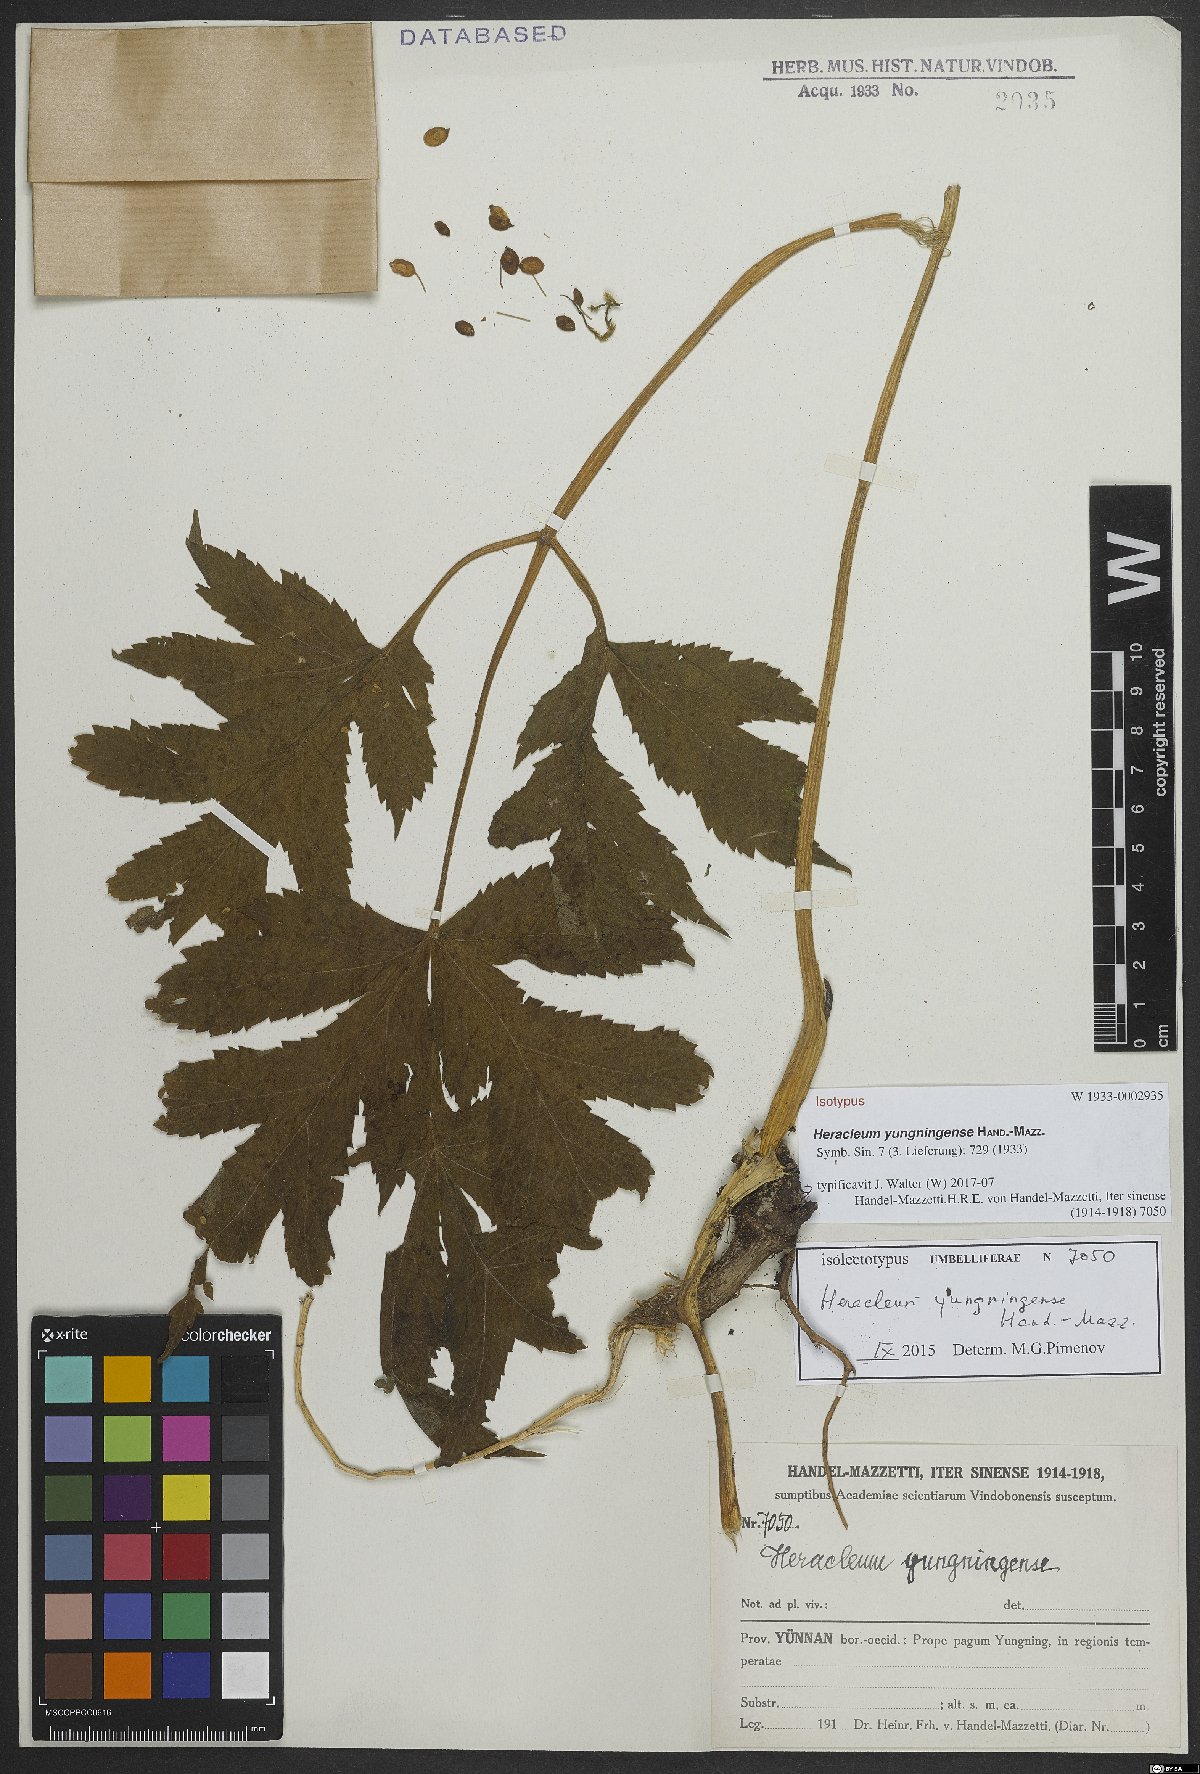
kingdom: Plantae
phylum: Tracheophyta
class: Magnoliopsida
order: Apiales
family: Apiaceae
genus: Heracleum
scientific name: Heracleum yungningense
